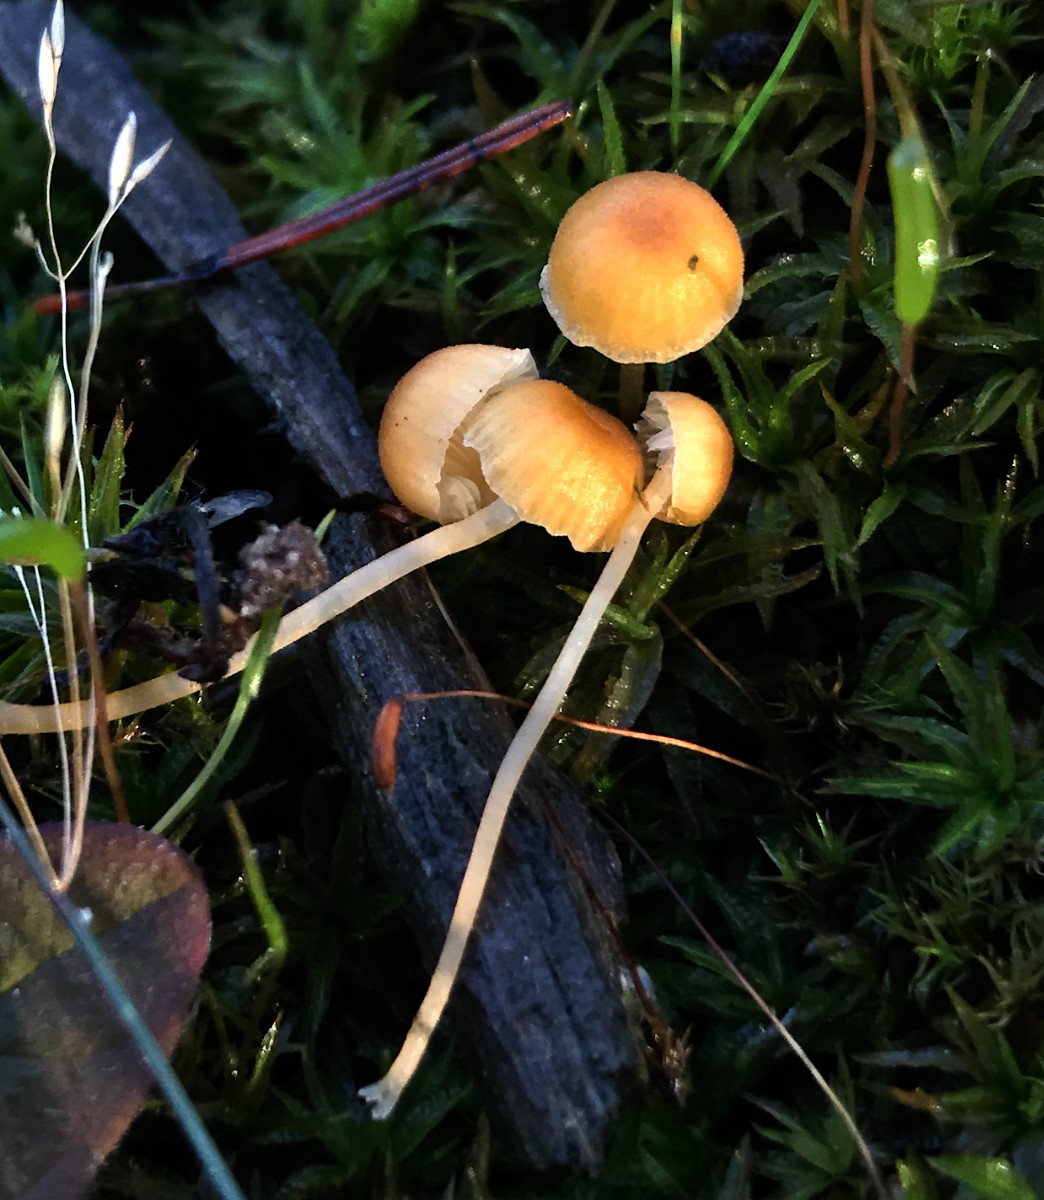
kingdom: Fungi
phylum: Basidiomycota
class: Agaricomycetes
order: Hymenochaetales
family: Rickenellaceae
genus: Rickenella
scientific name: Rickenella fibula
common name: orange mosnavlehat
